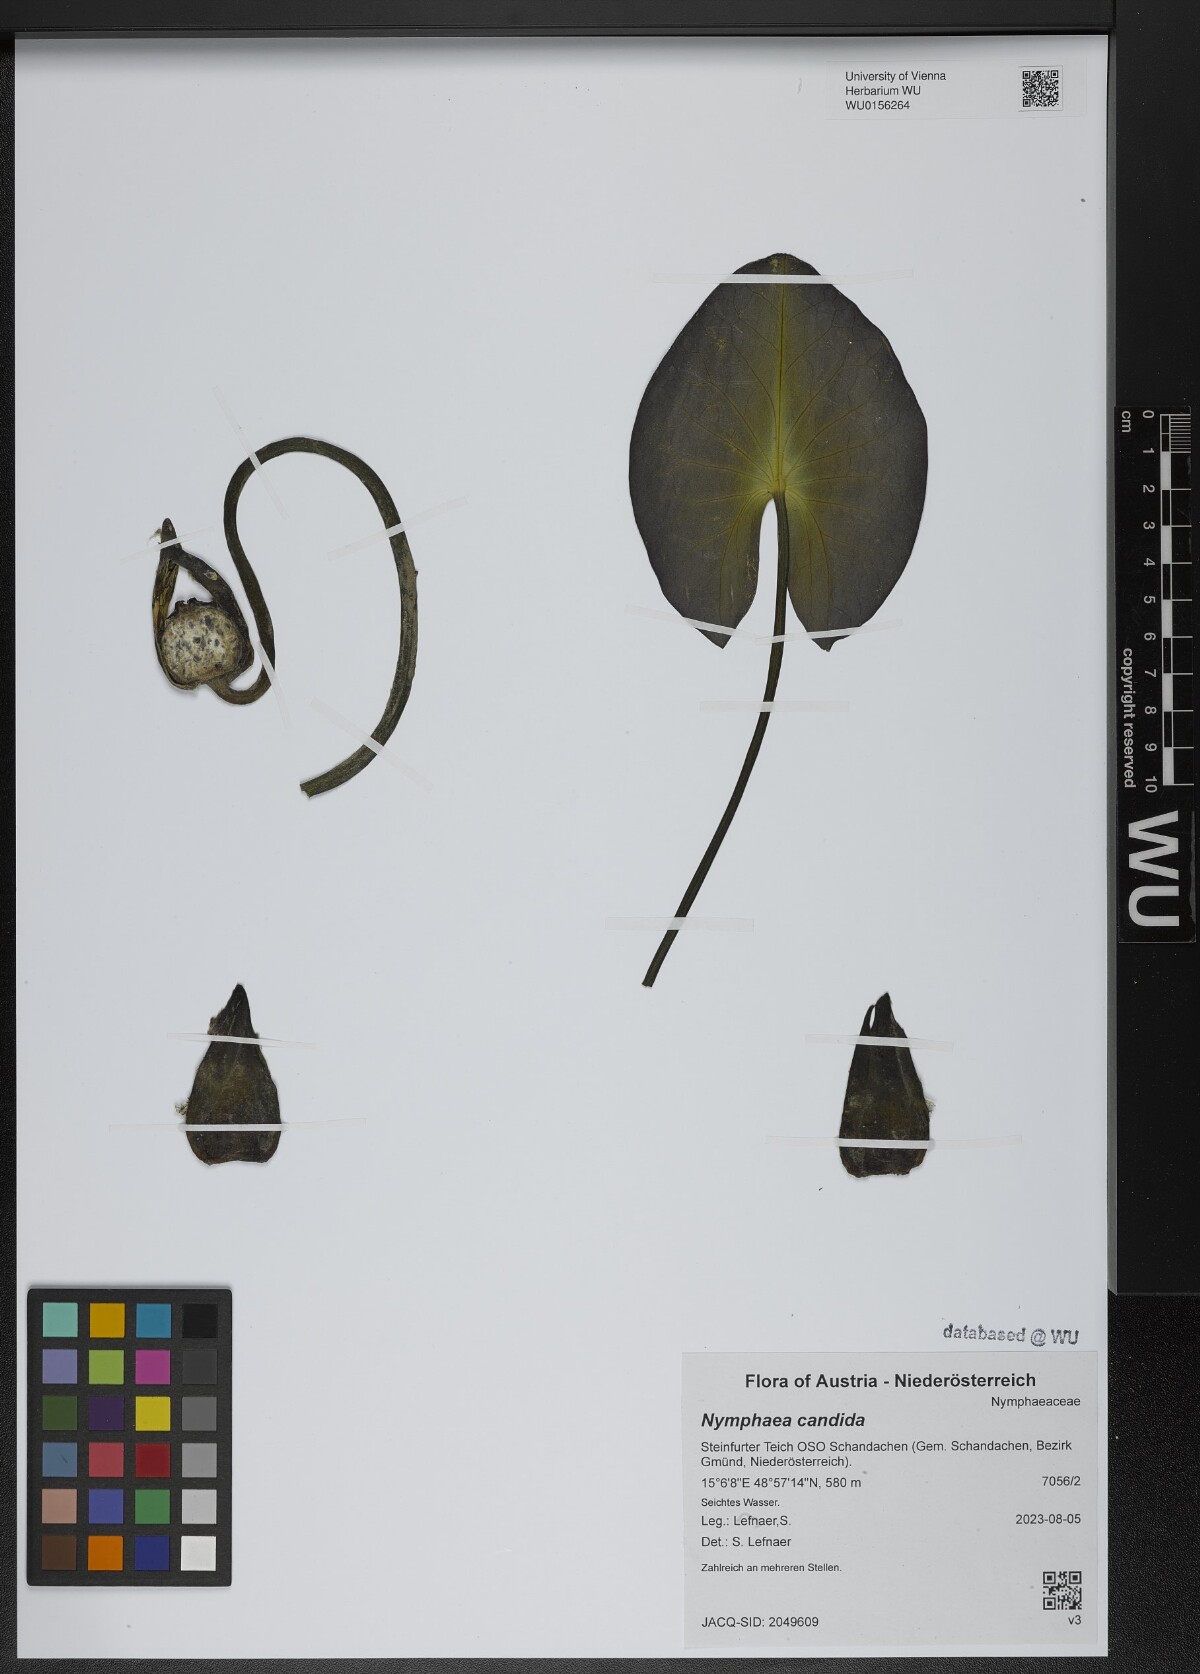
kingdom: Plantae
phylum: Tracheophyta
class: Magnoliopsida
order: Nymphaeales
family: Nymphaeaceae
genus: Nymphaea
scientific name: Nymphaea candida
